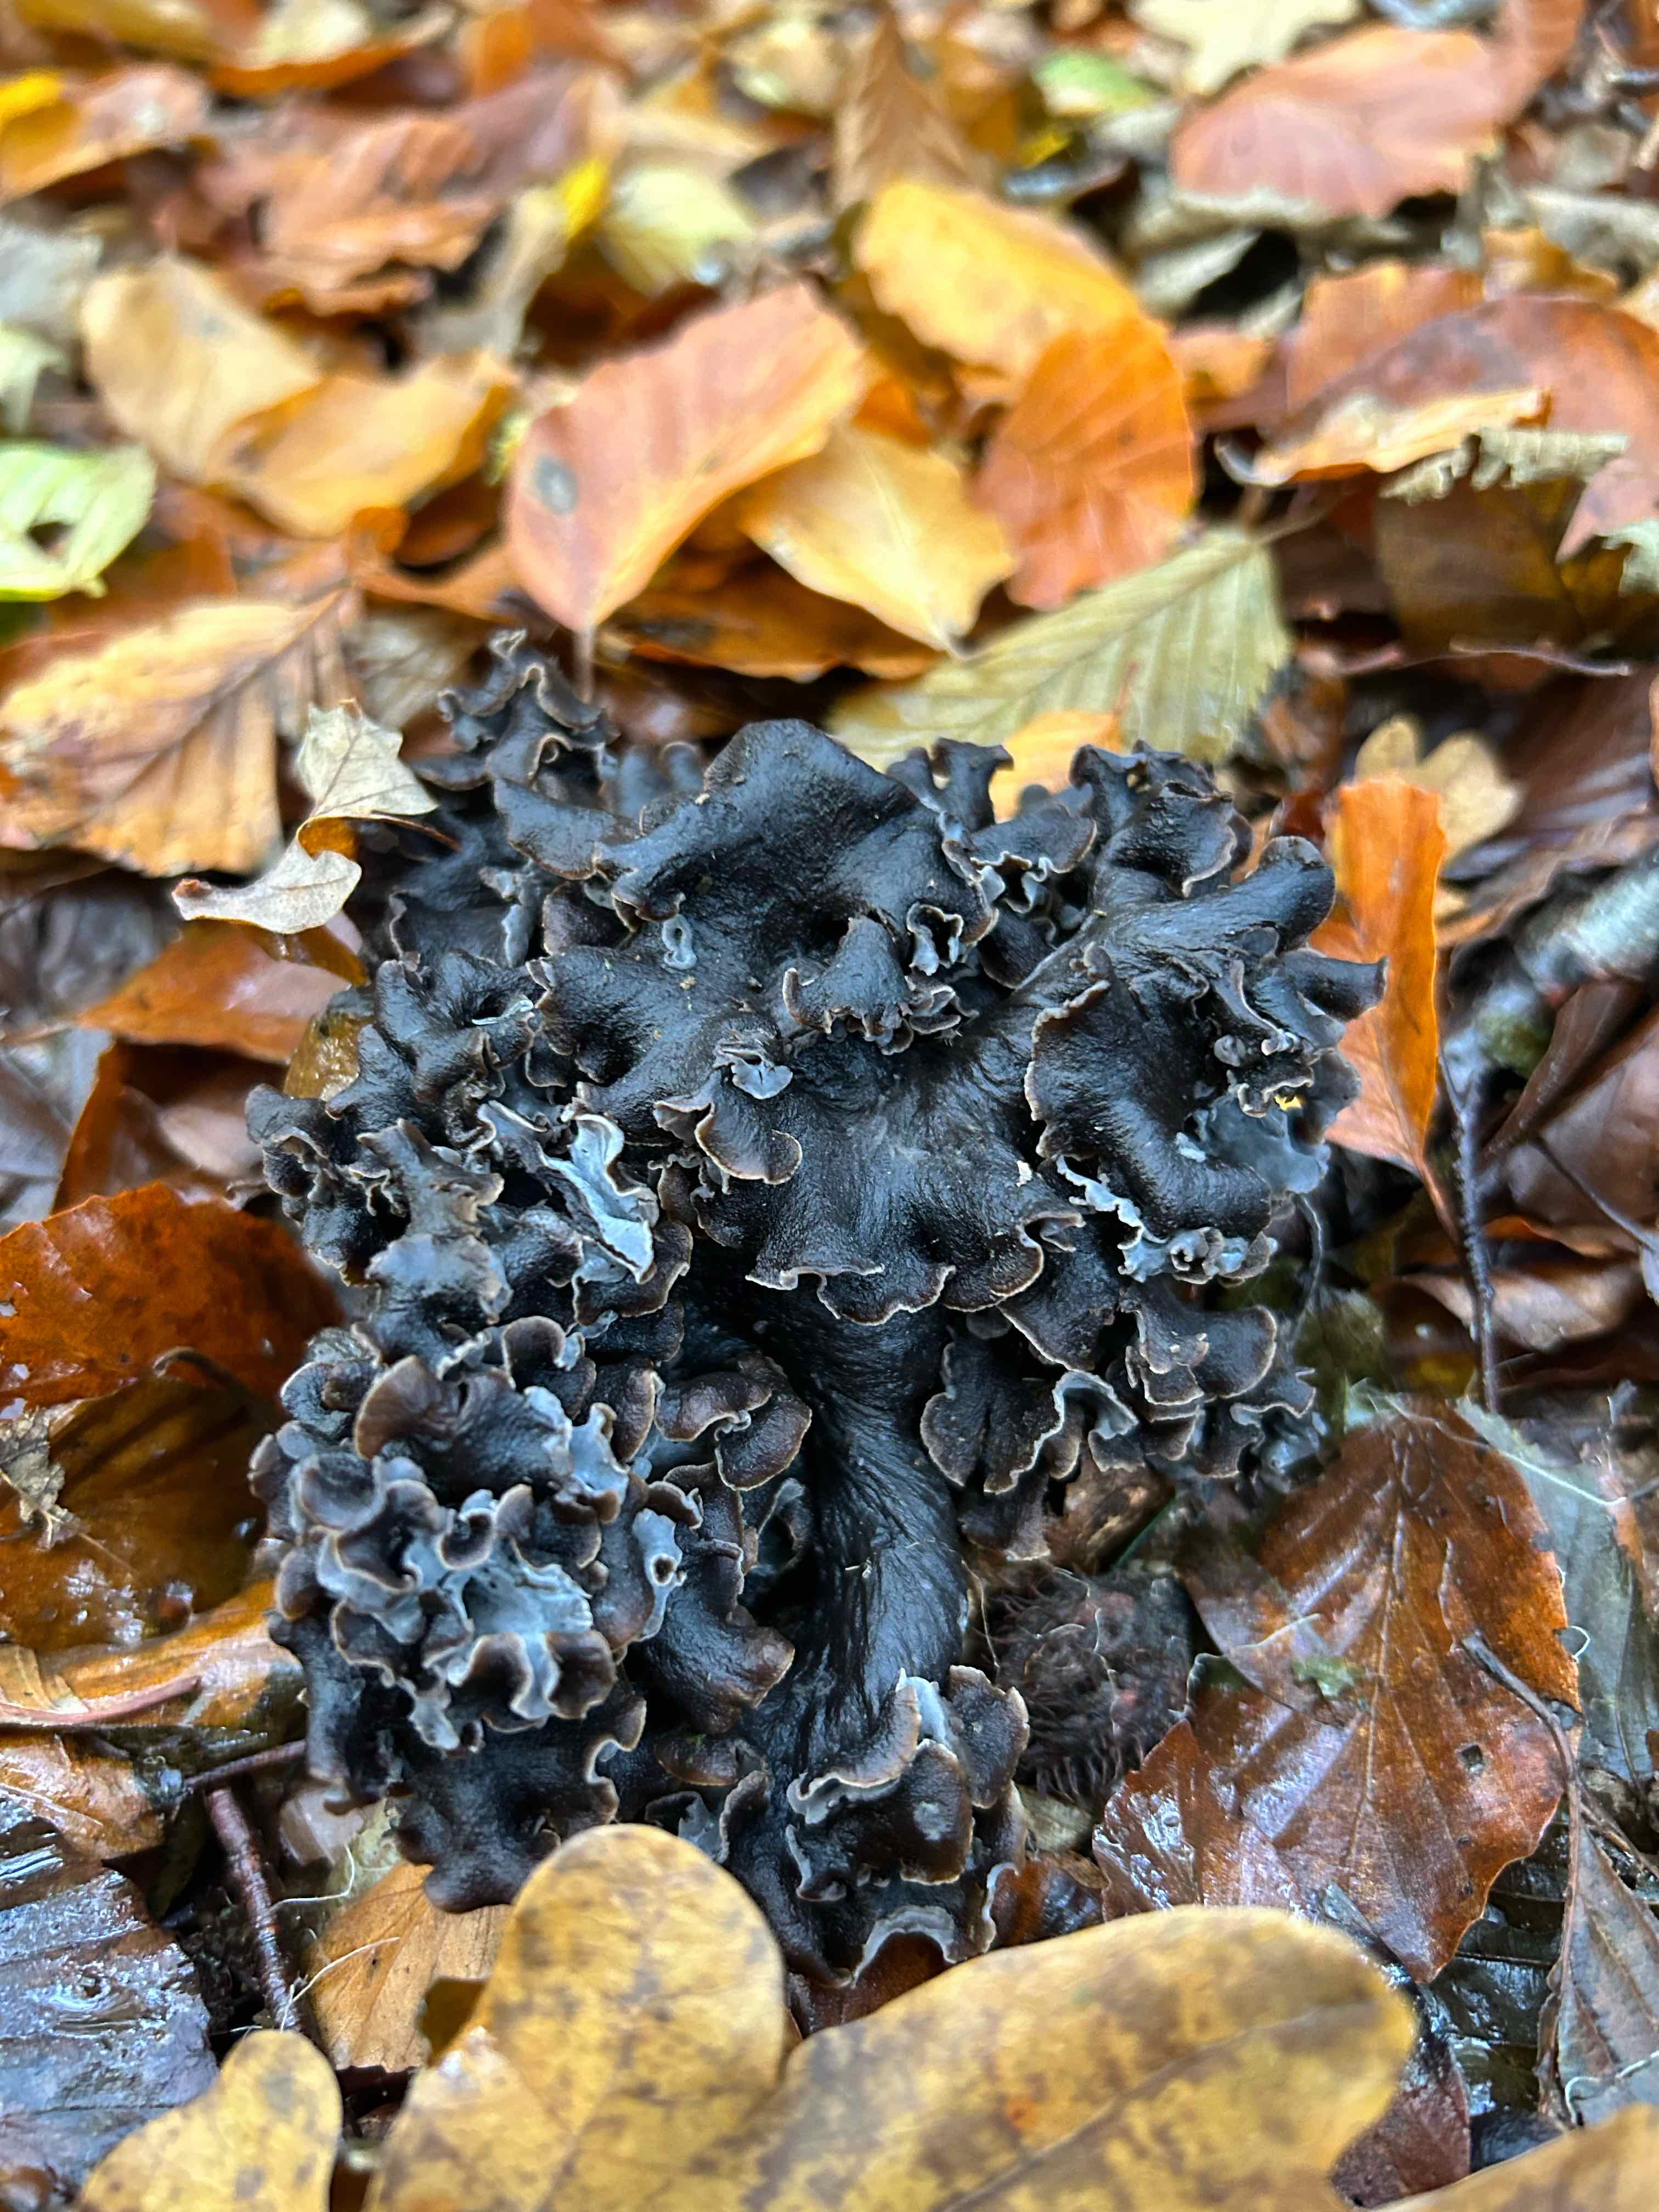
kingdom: Fungi
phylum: Basidiomycota
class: Agaricomycetes
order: Cantharellales
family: Hydnaceae
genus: Craterellus
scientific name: Craterellus cornucopioides
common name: trompetsvamp
